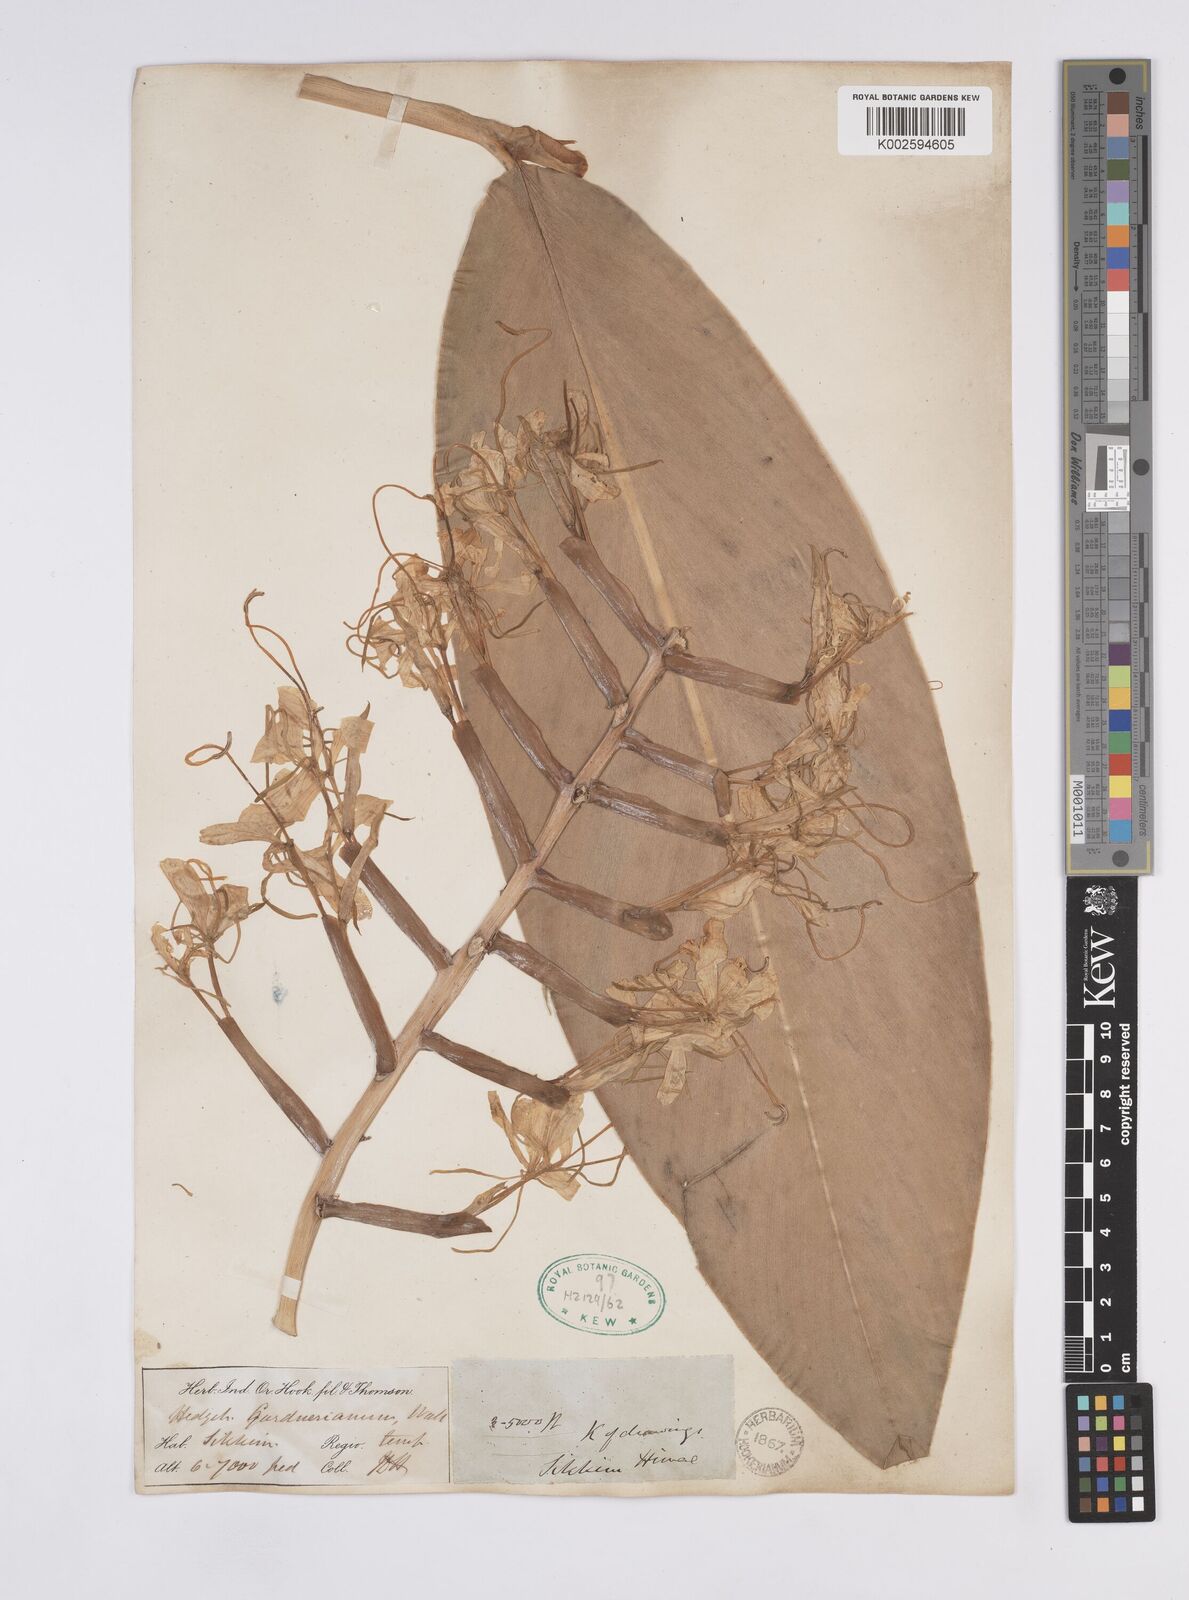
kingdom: Plantae
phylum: Tracheophyta
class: Liliopsida
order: Zingiberales
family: Zingiberaceae
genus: Hedychium
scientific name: Hedychium gardnerianum
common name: Himalayan ginger
